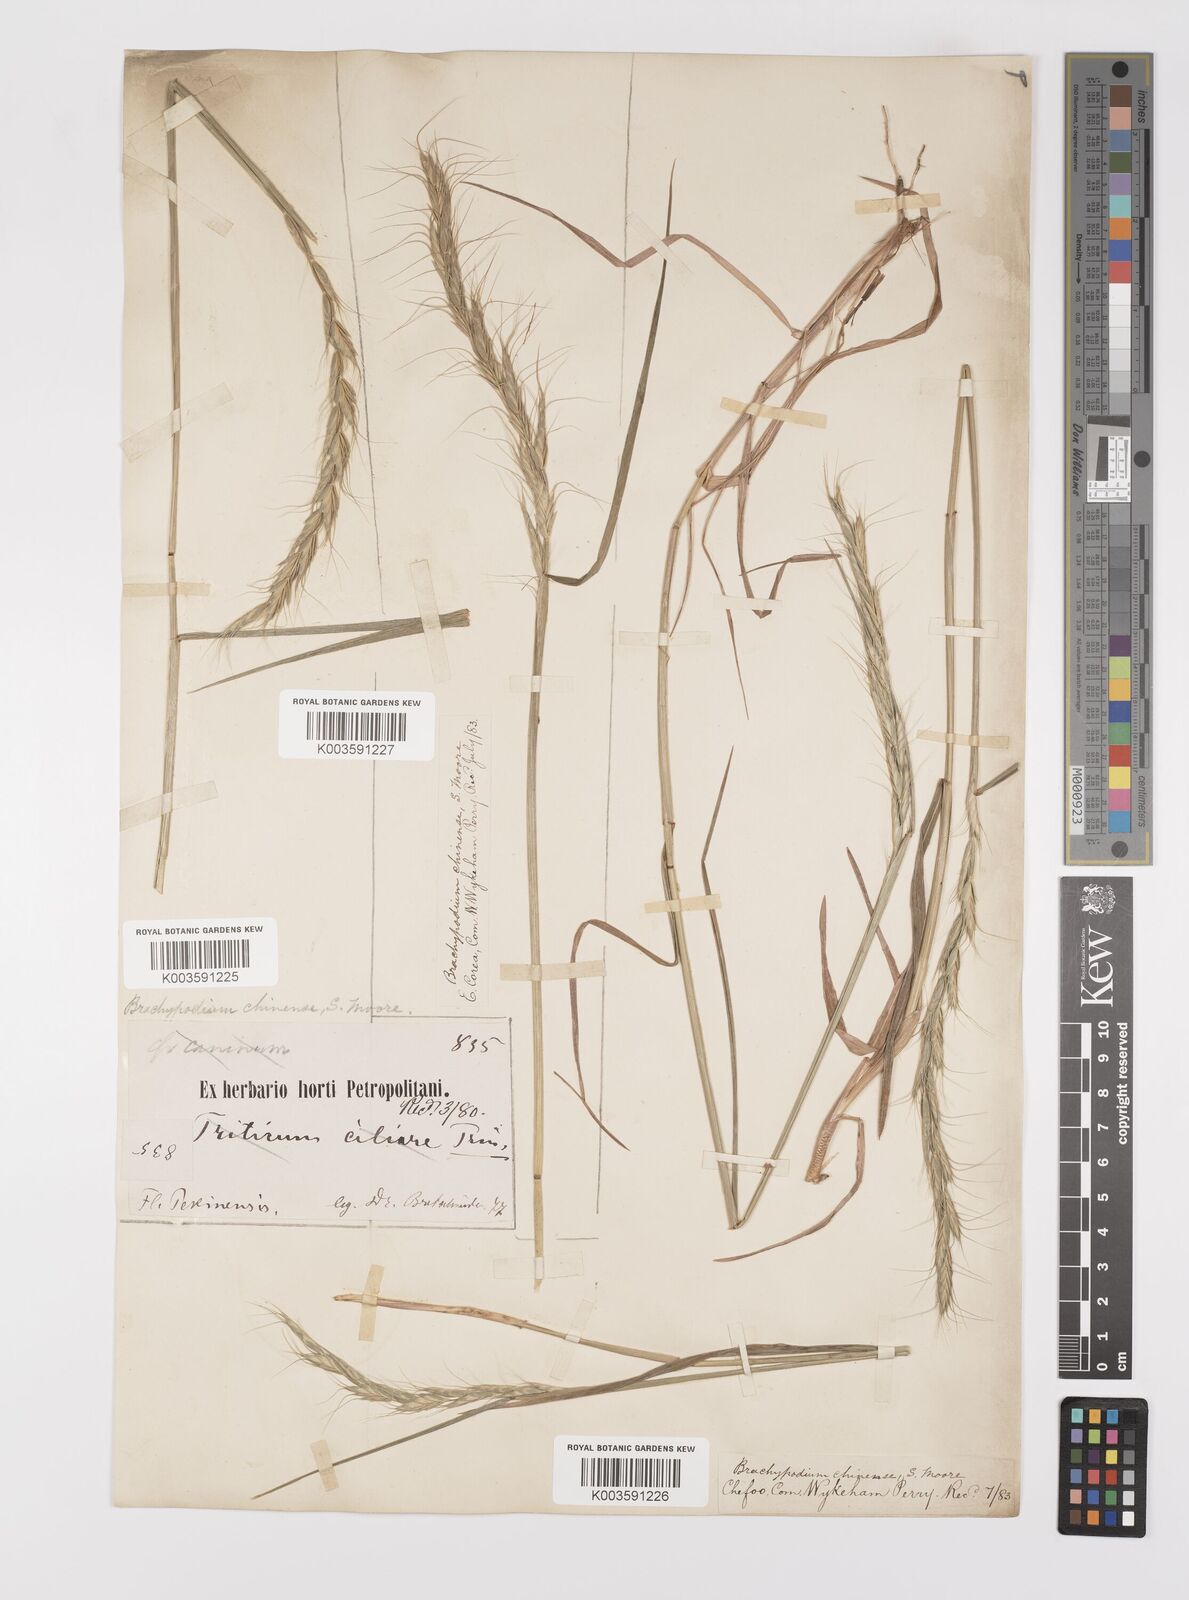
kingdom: Plantae
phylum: Tracheophyta
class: Liliopsida
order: Poales
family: Poaceae
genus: Leymus
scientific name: Leymus chinensis
